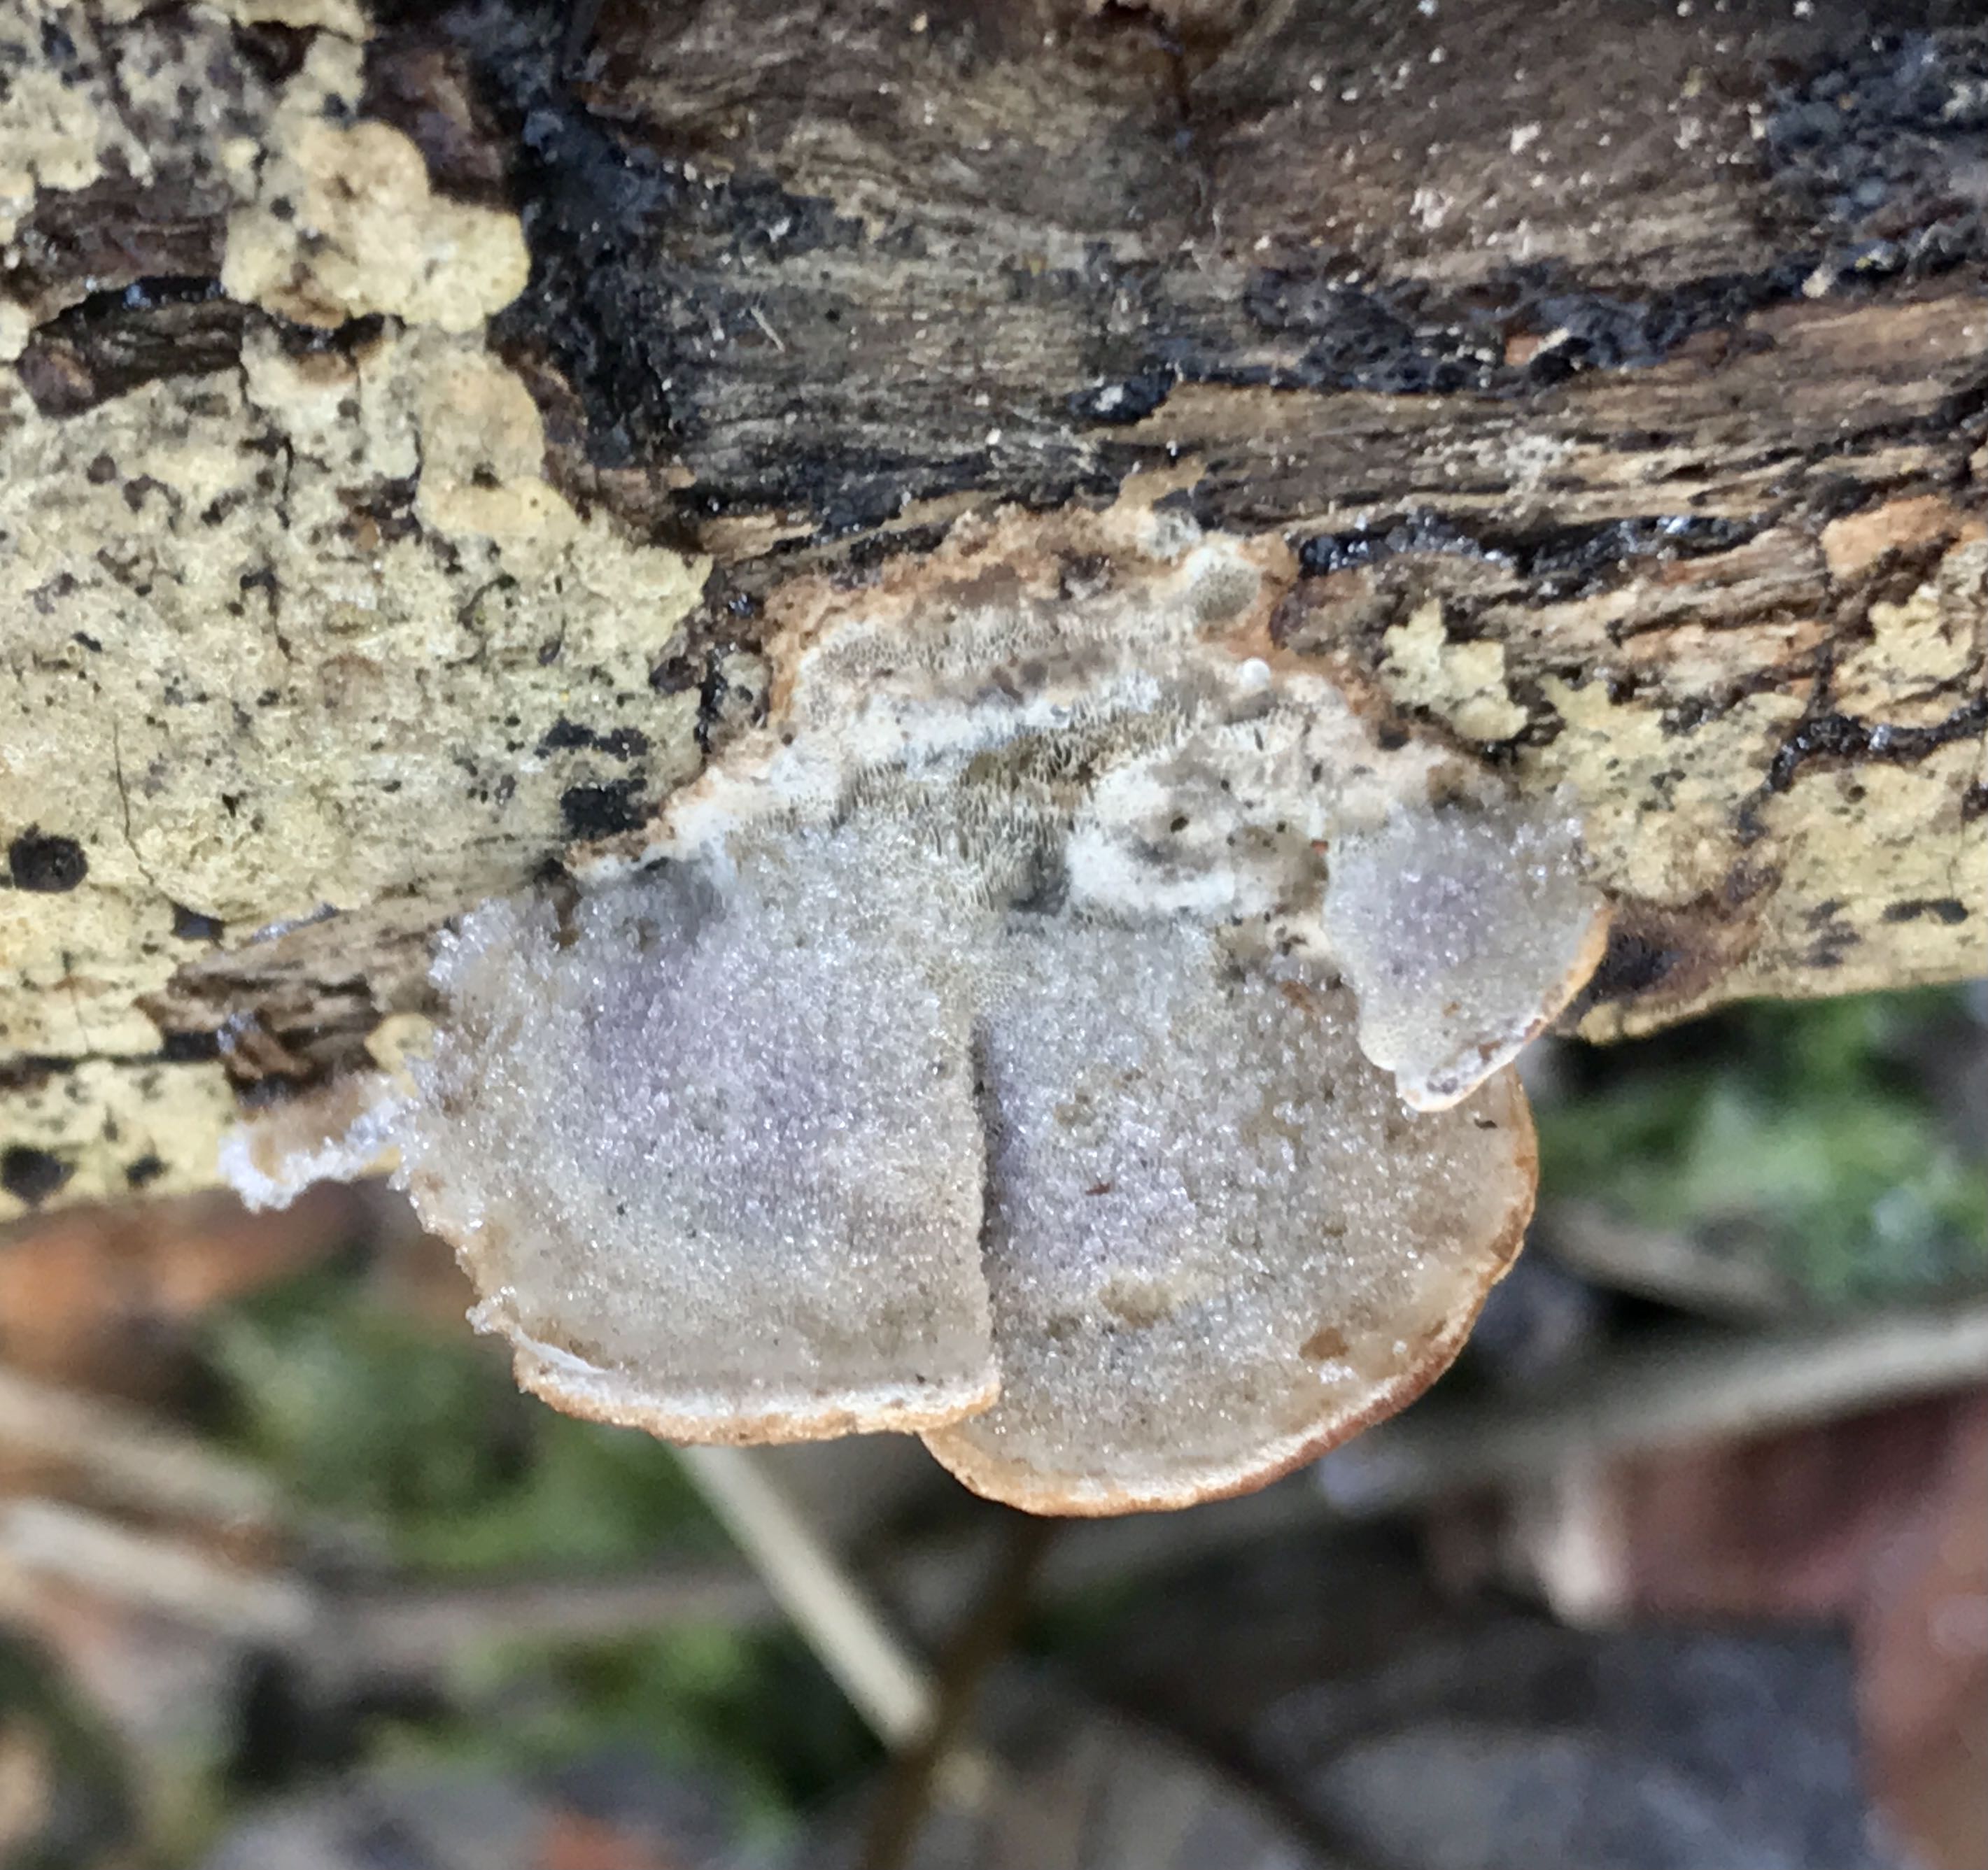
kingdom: Fungi
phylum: Basidiomycota
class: Agaricomycetes
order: Polyporales
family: Incrustoporiaceae
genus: Skeletocutis
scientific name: Skeletocutis nemoralis
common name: stor krystalporesvamp
